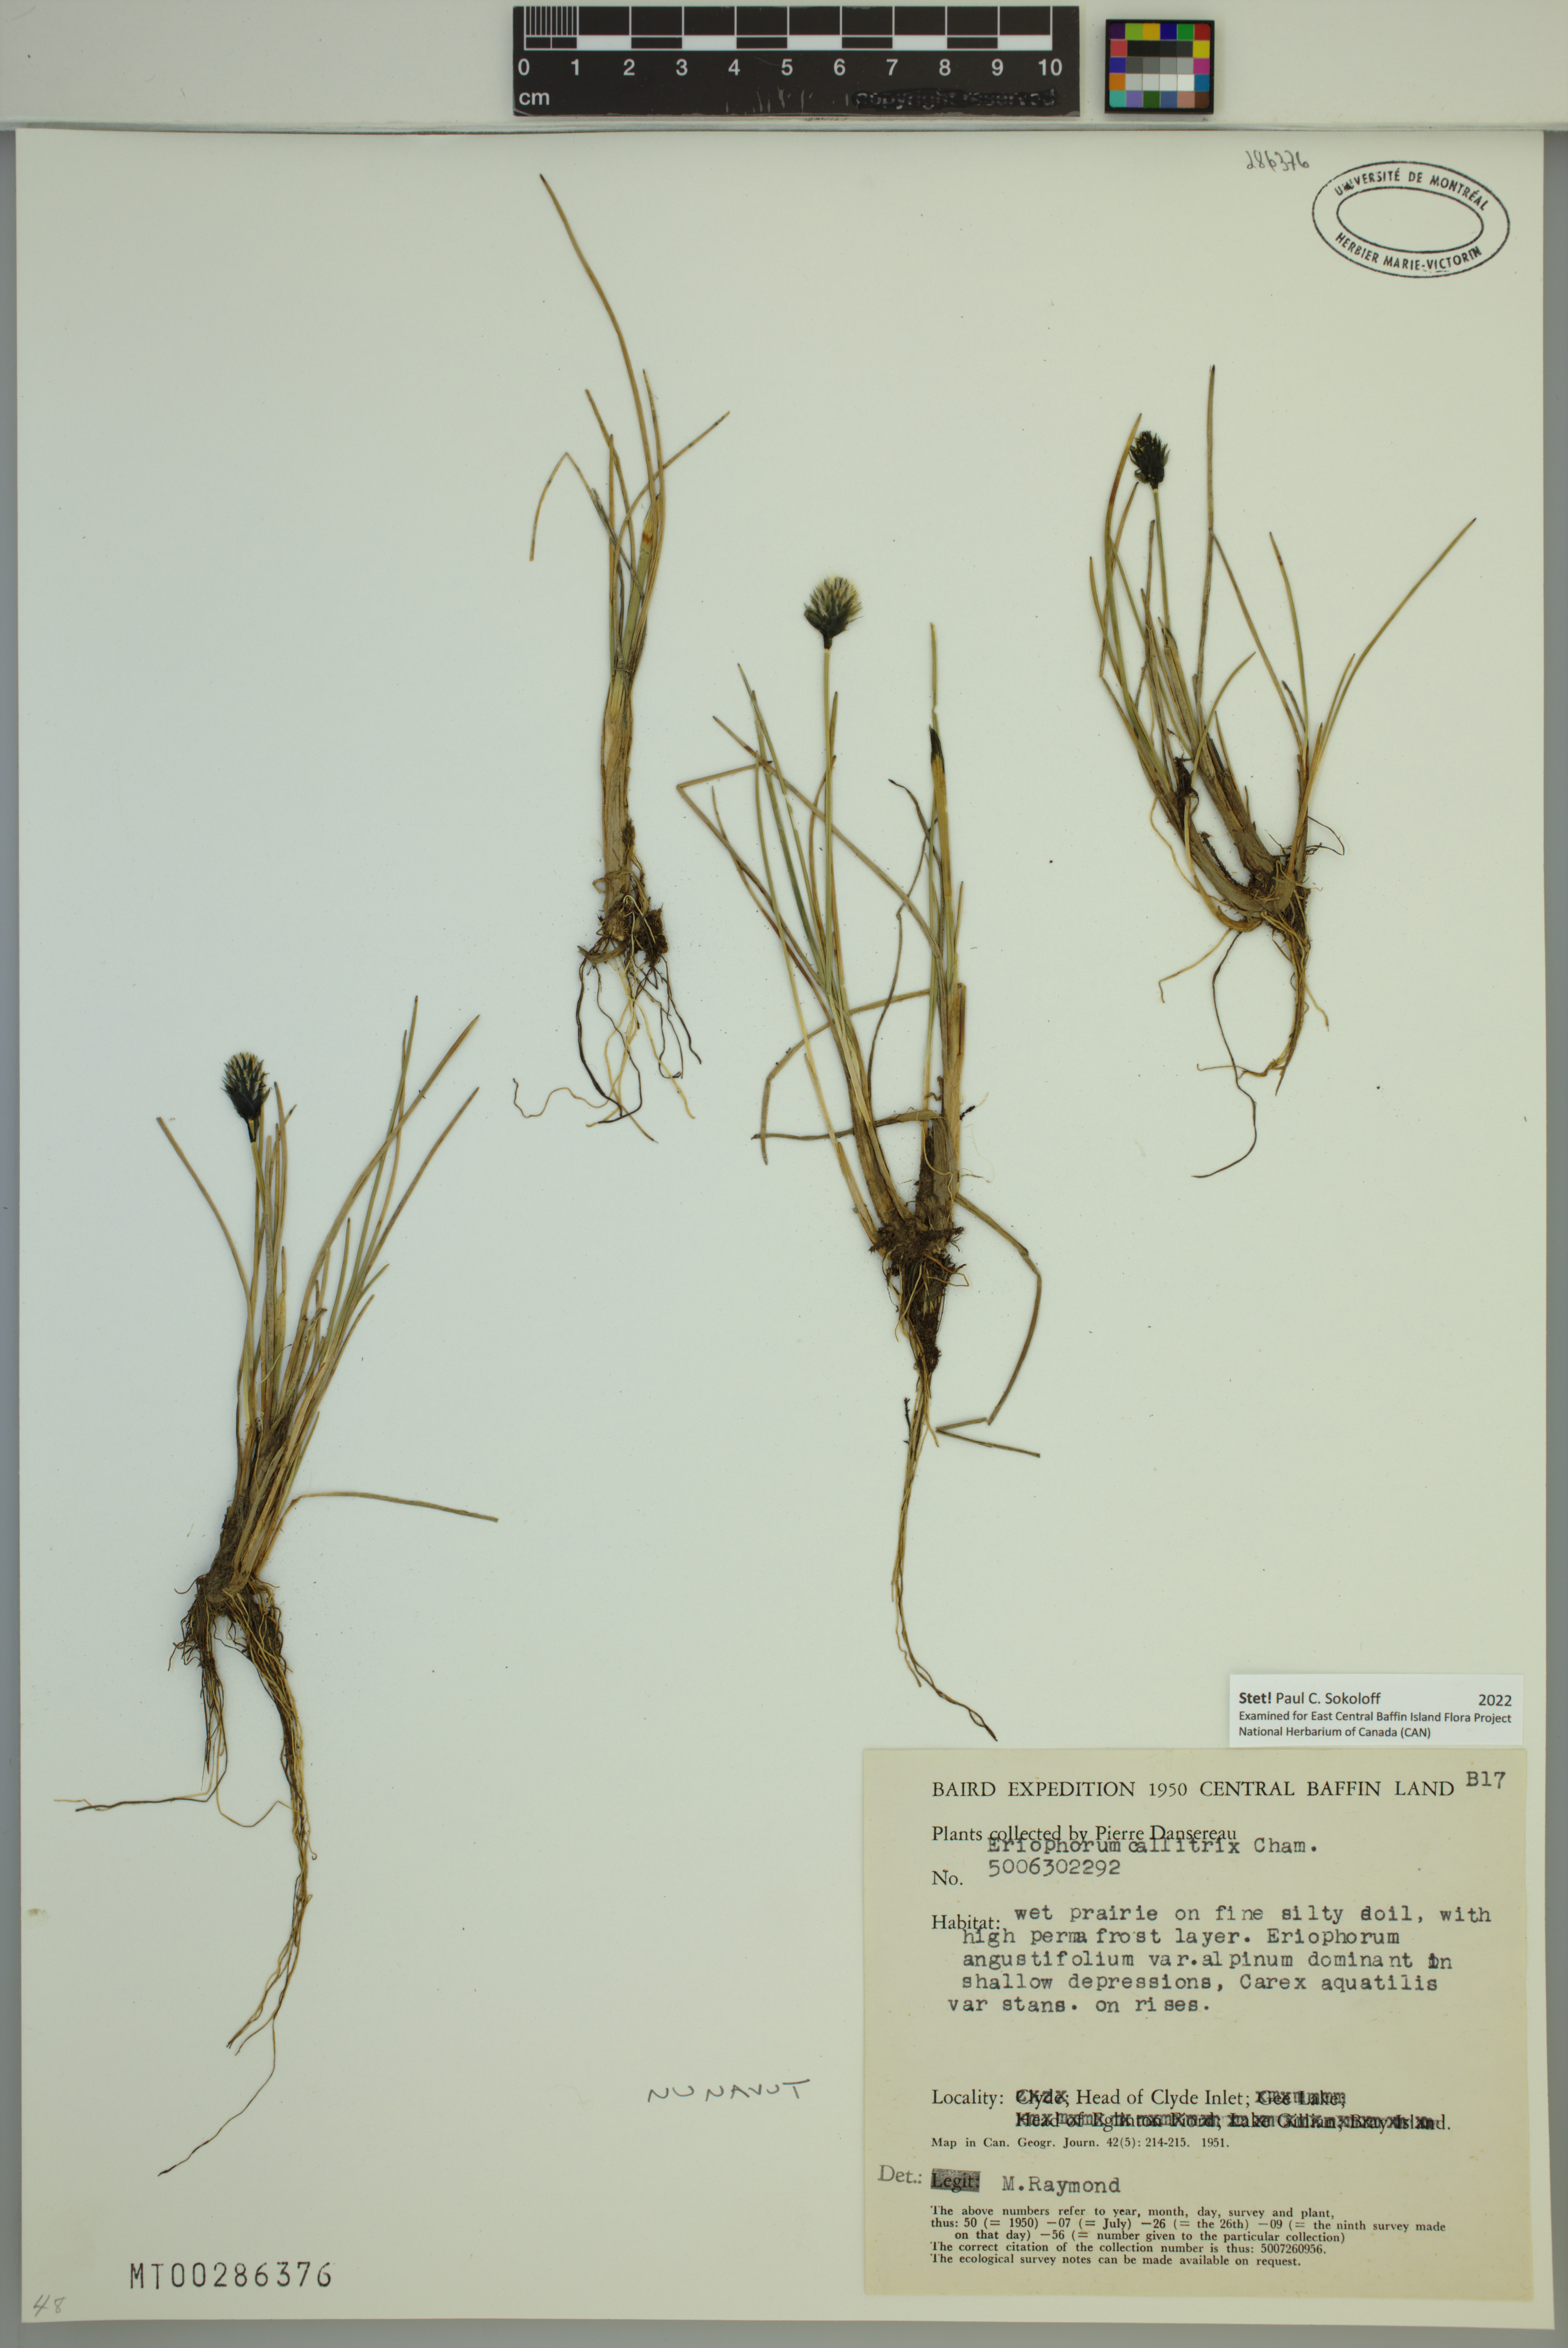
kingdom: Plantae
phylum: Tracheophyta
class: Liliopsida
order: Poales
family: Cyperaceae
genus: Eriophorum
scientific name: Eriophorum callitrix
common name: Arctic cottongrass
